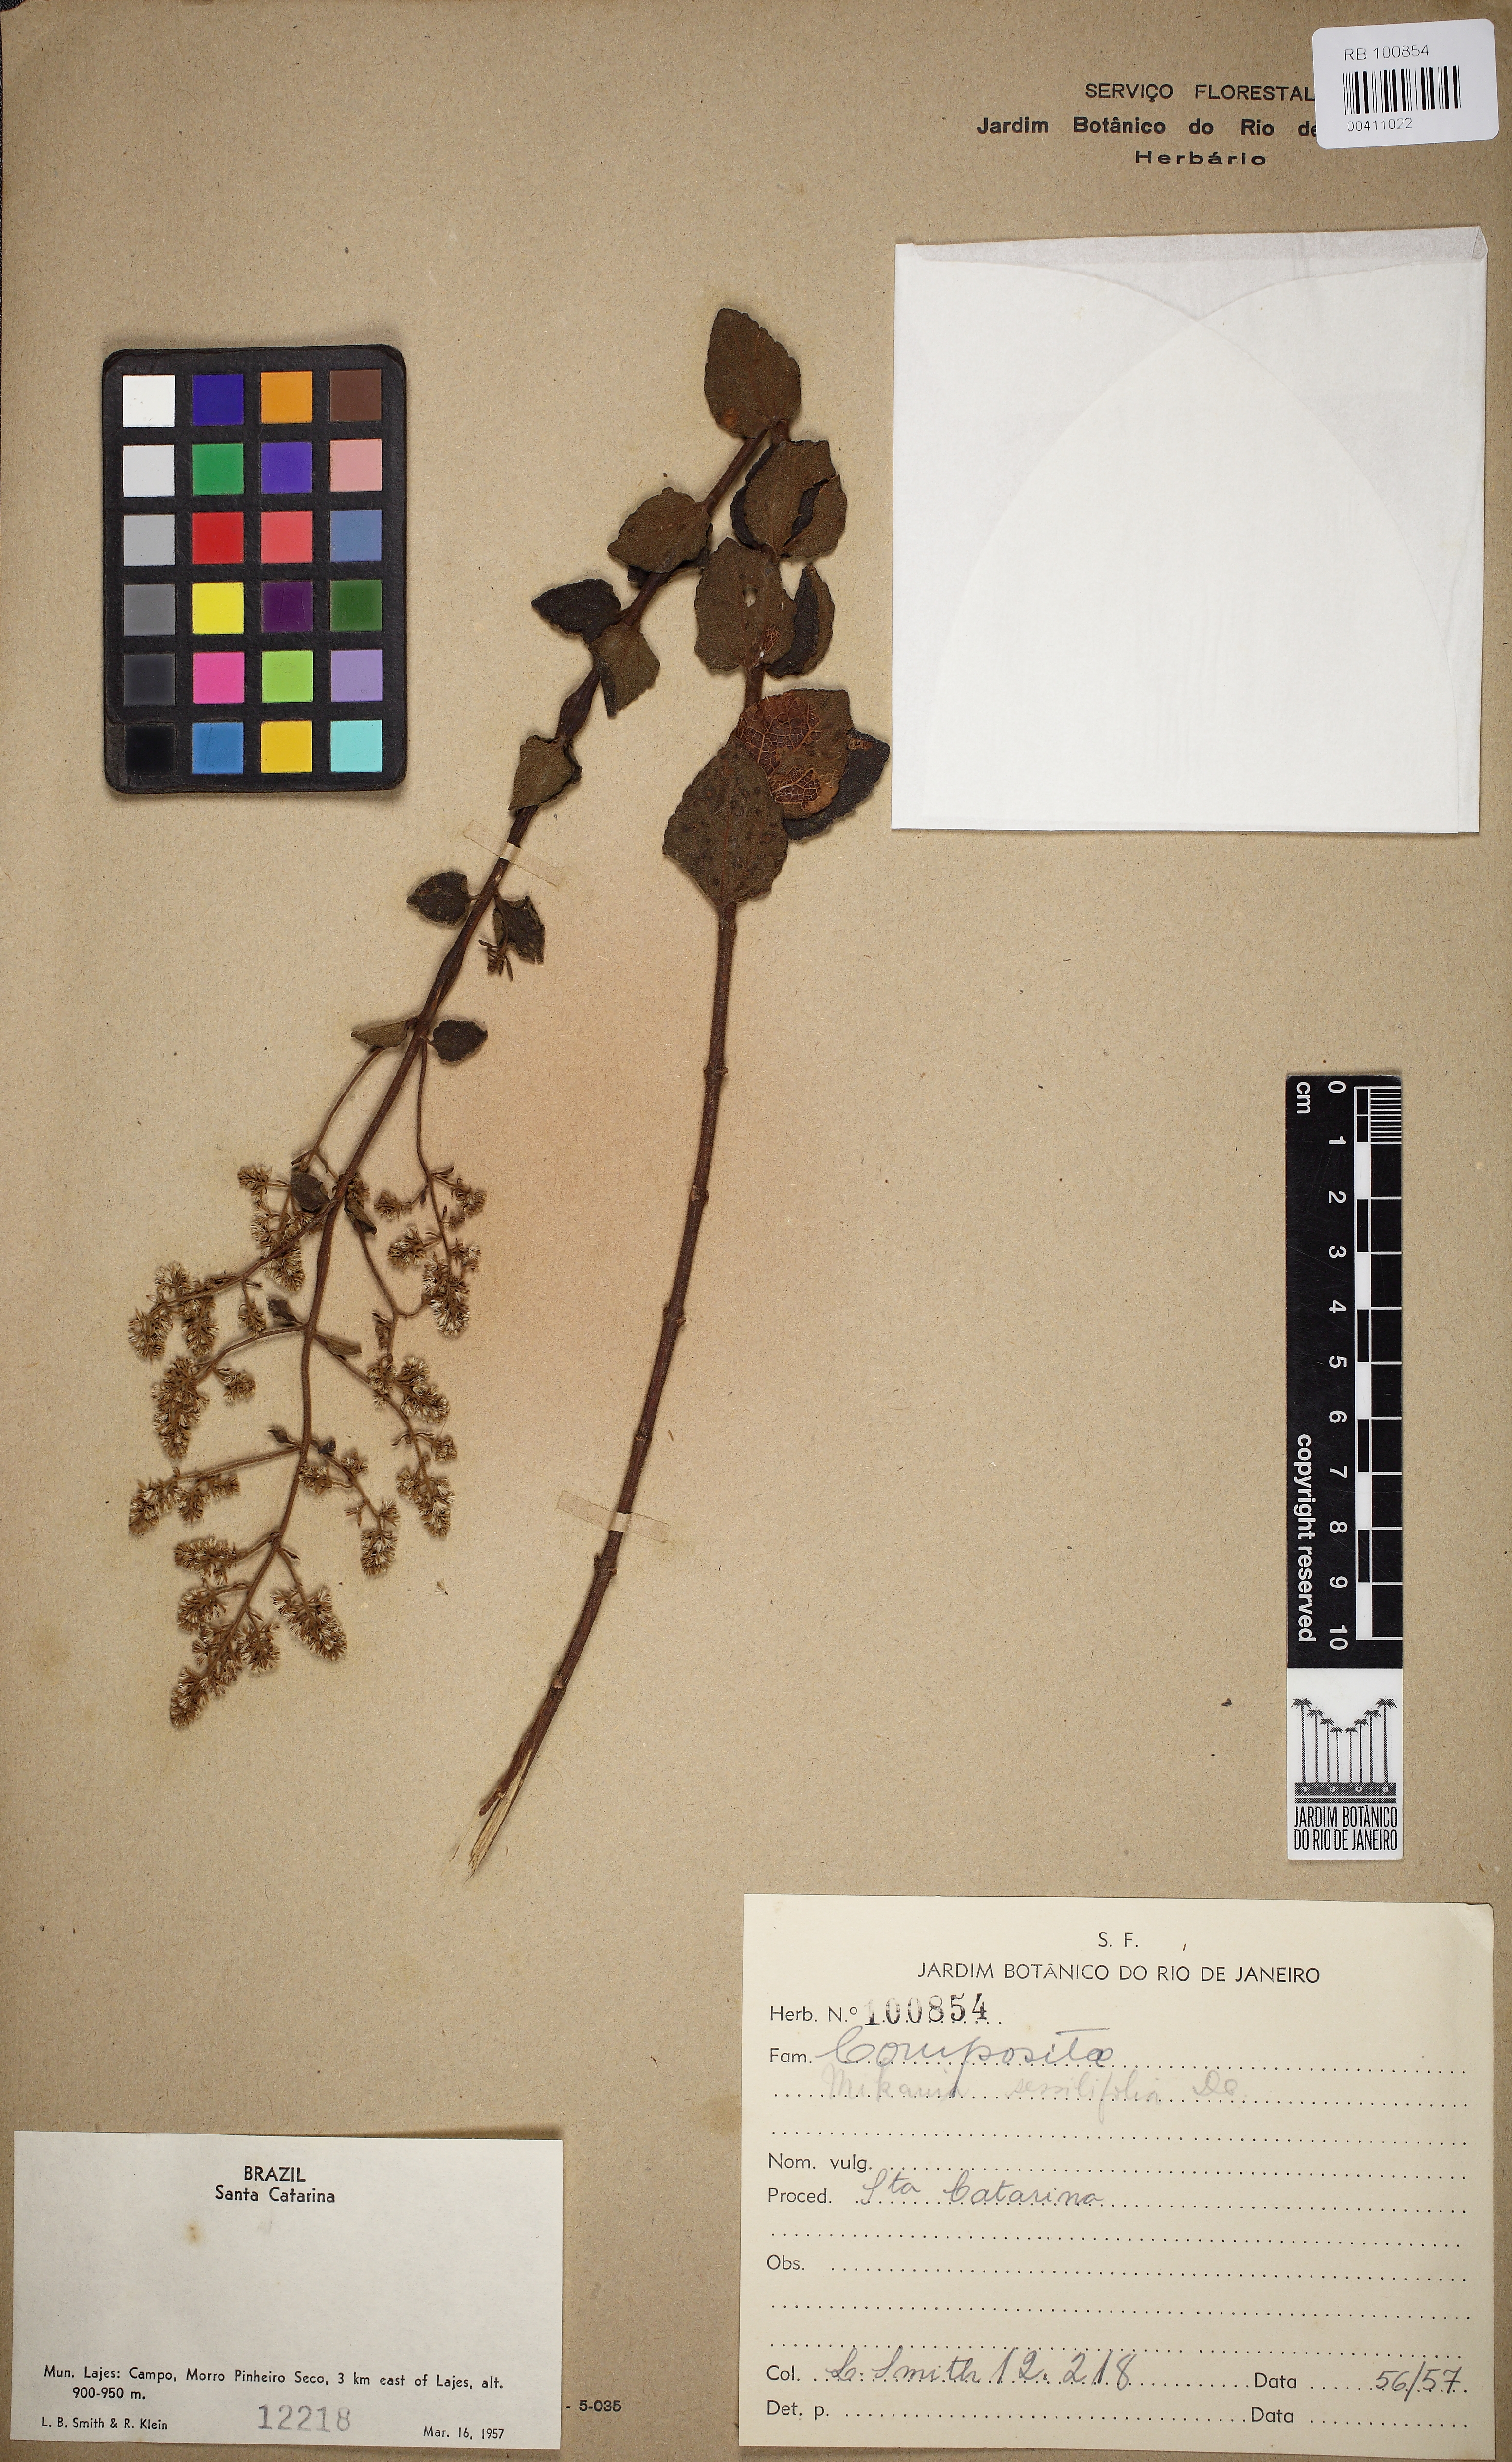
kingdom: Plantae
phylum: Tracheophyta
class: Magnoliopsida
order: Asterales
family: Asteraceae
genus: Mikania
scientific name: Mikania sessilifolia
